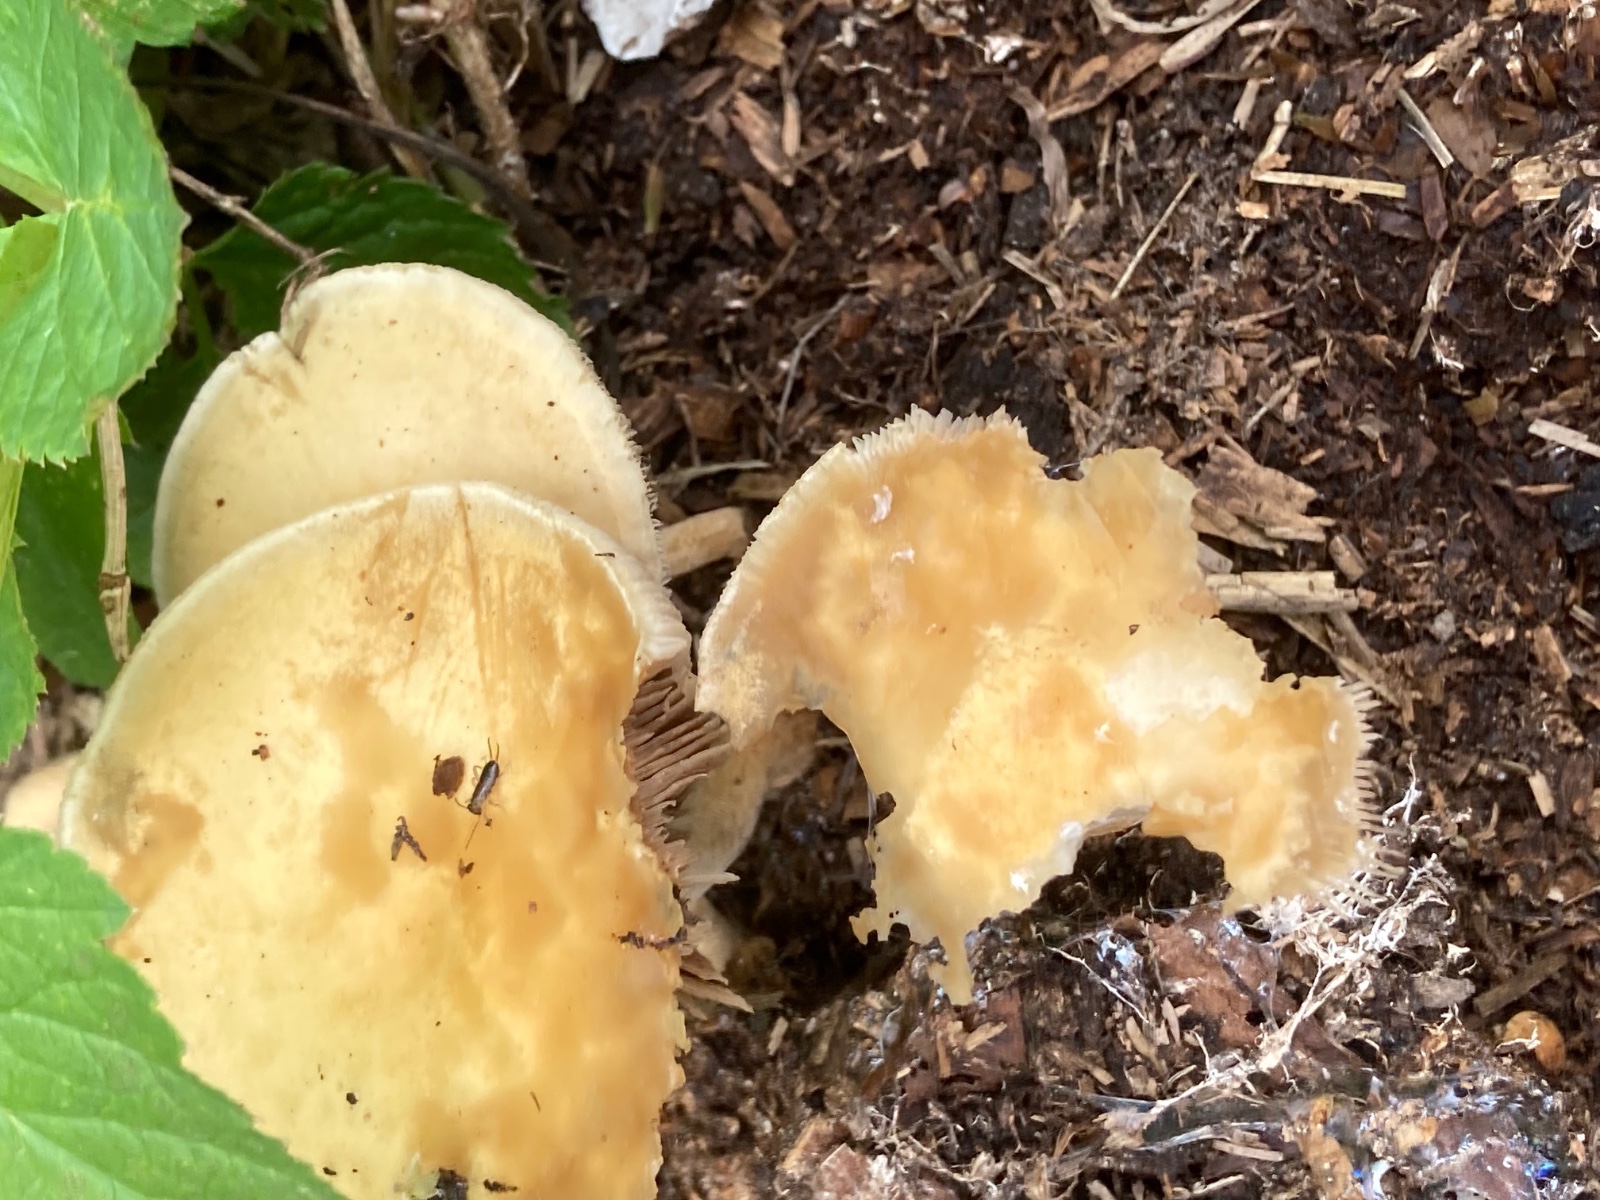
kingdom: Fungi
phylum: Basidiomycota
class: Agaricomycetes
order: Agaricales
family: Strophariaceae
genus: Agrocybe
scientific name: Agrocybe putaminum
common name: træflis-agerhat
